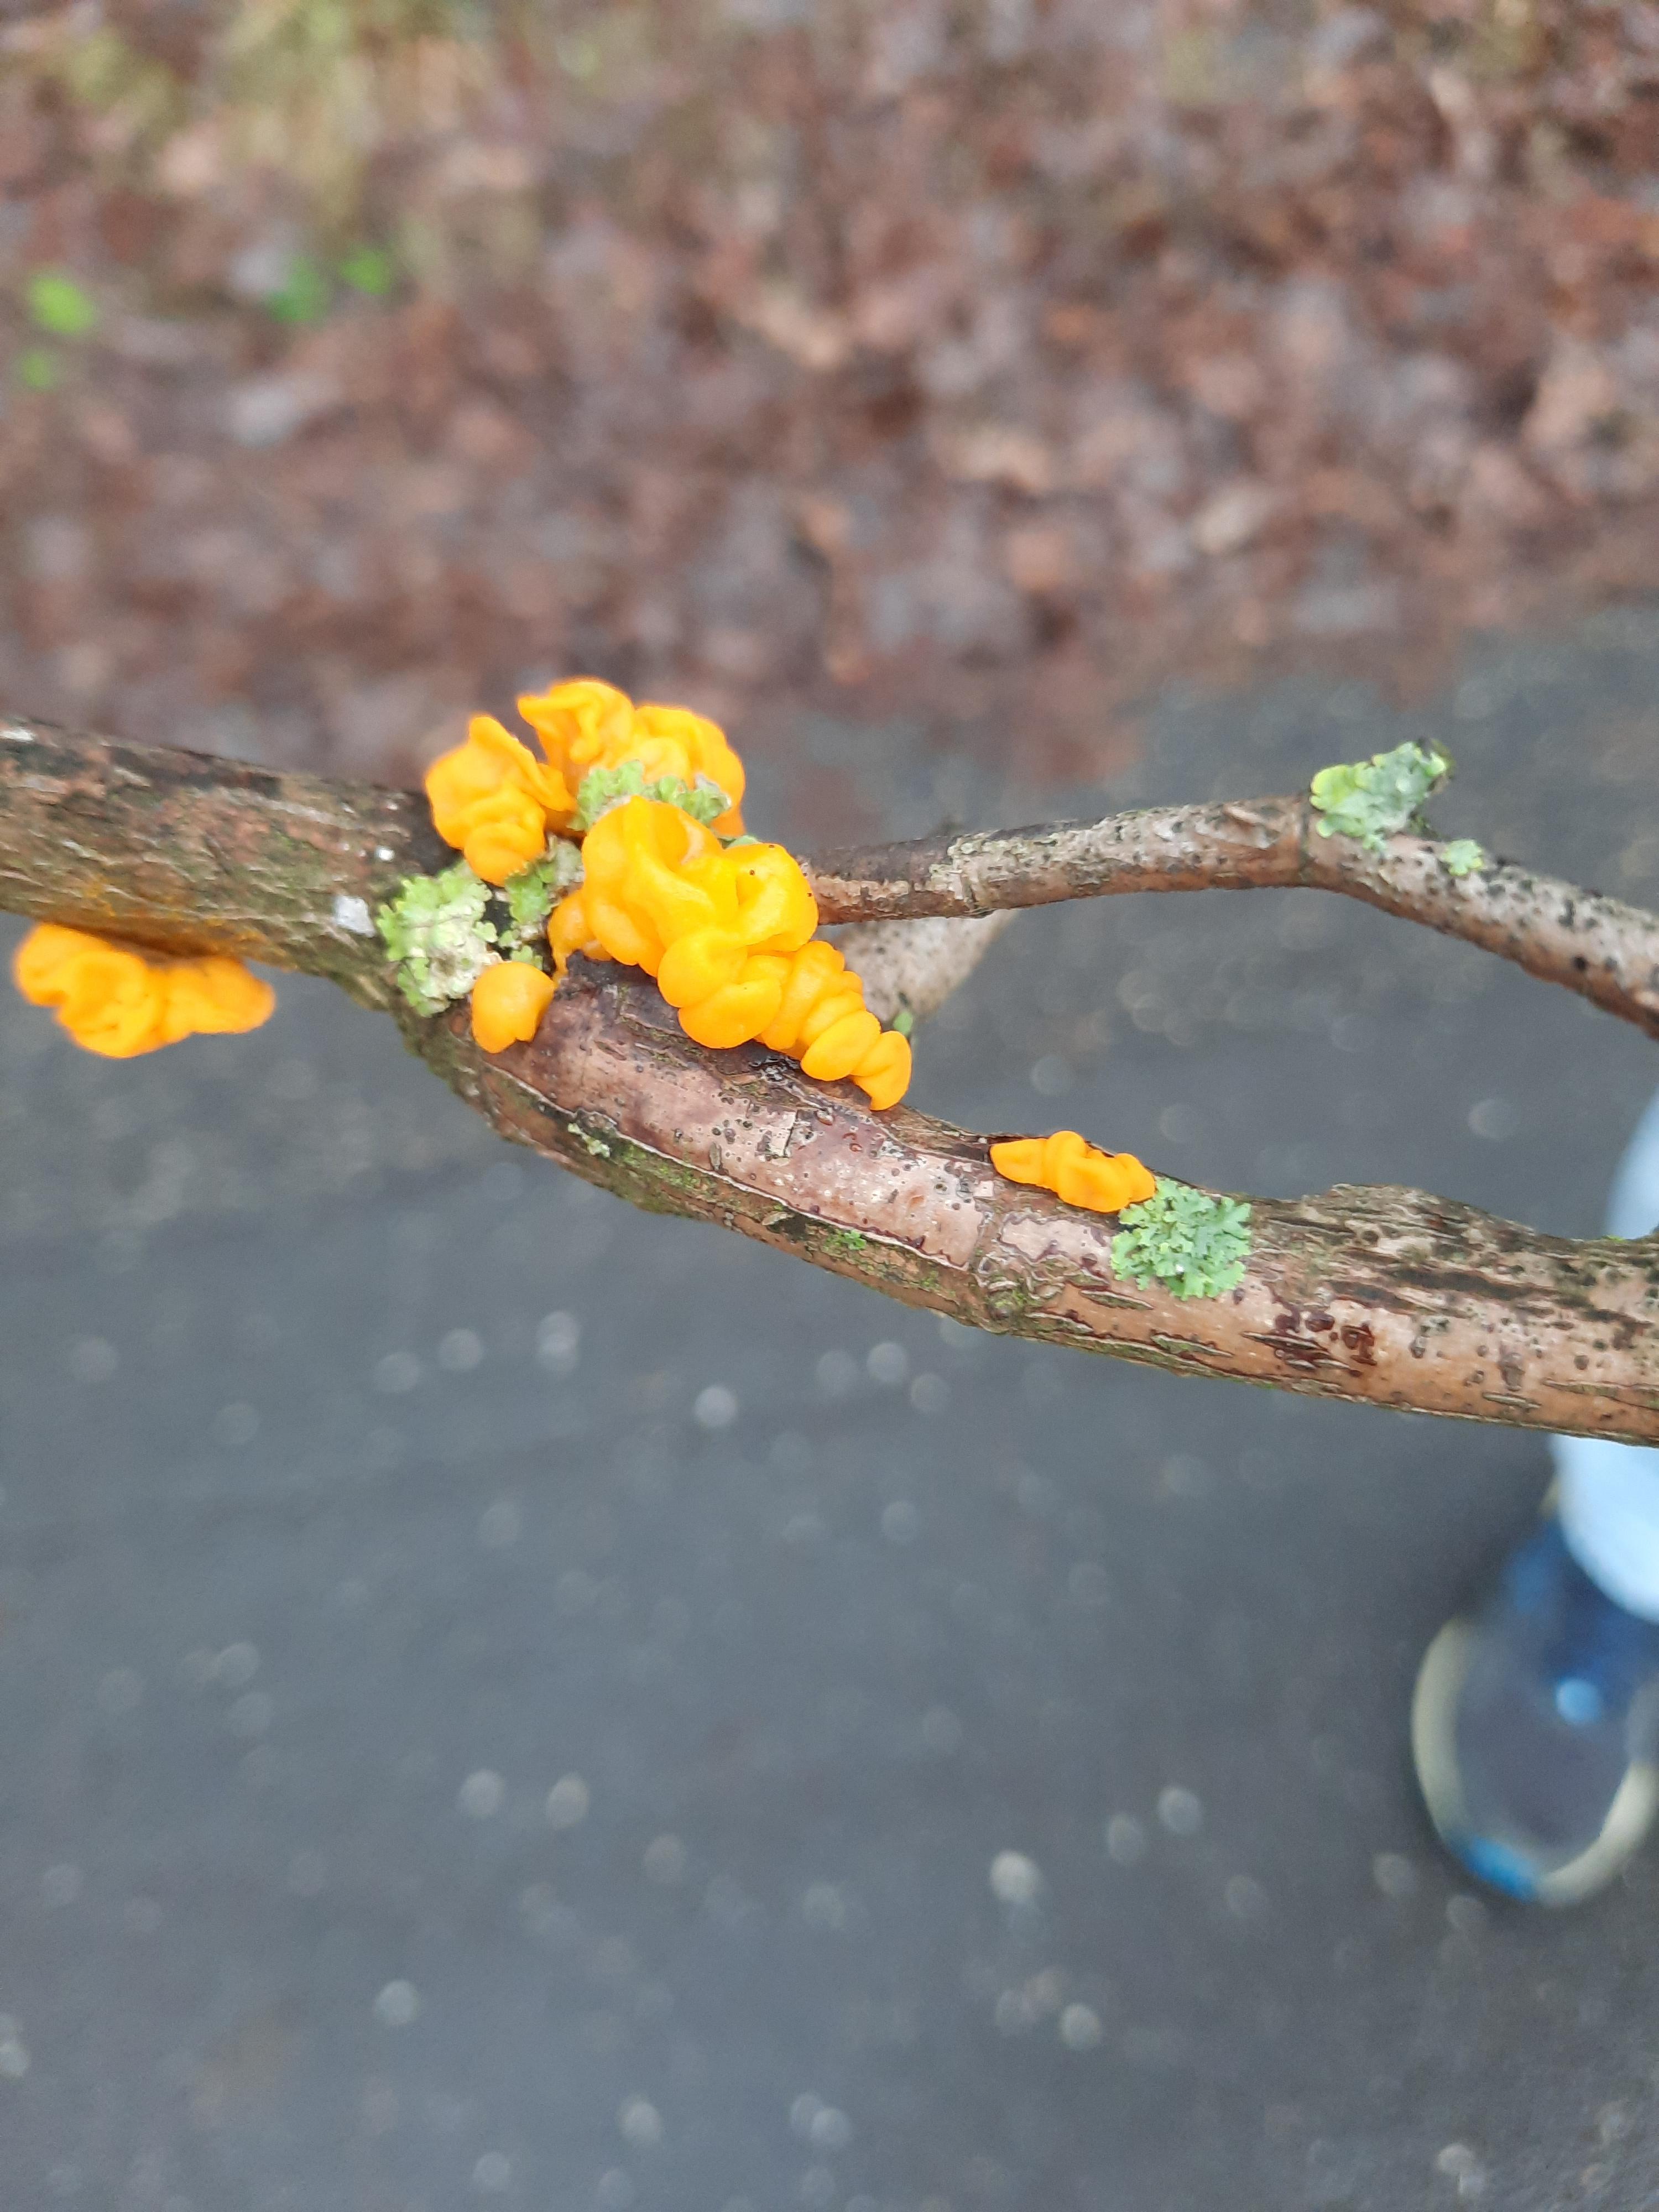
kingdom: Fungi
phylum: Basidiomycota
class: Tremellomycetes
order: Tremellales
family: Tremellaceae
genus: Tremella
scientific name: Tremella mesenterica
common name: gul bævresvamp
